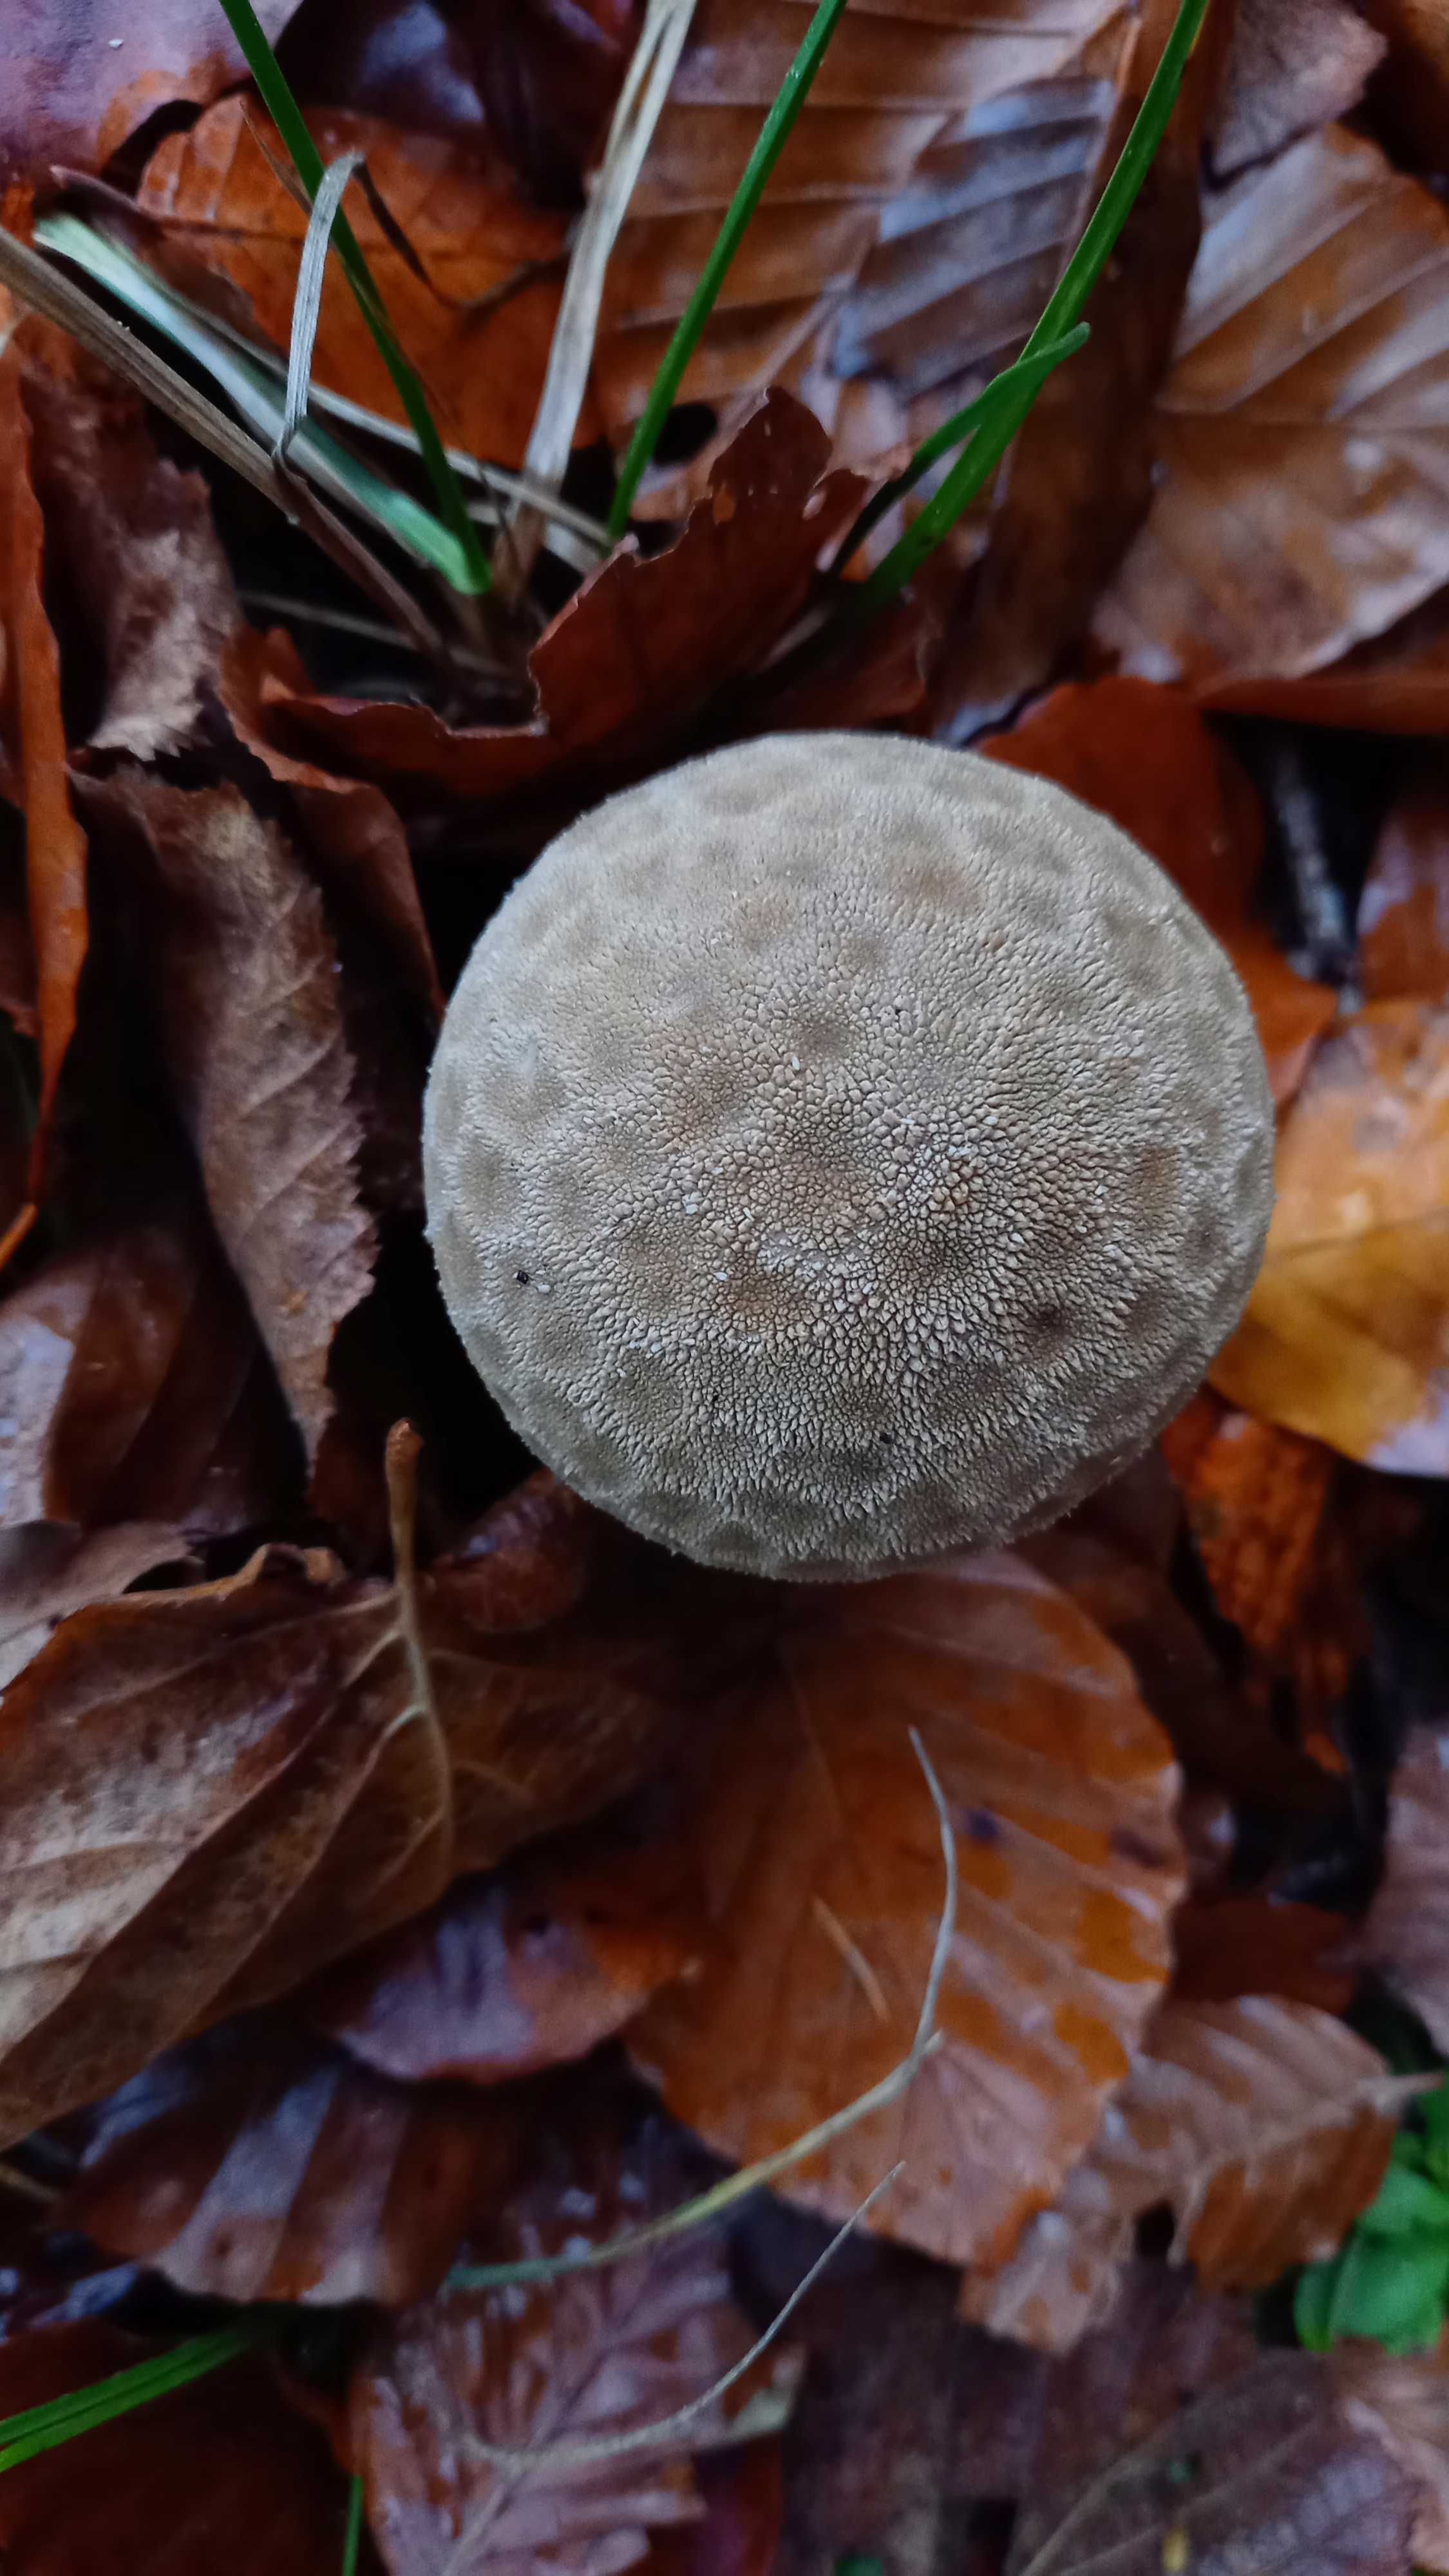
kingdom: Fungi
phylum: Basidiomycota
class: Agaricomycetes
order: Agaricales
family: Lycoperdaceae
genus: Lycoperdon
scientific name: Lycoperdon excipuliforme
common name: højstokket støvbold
